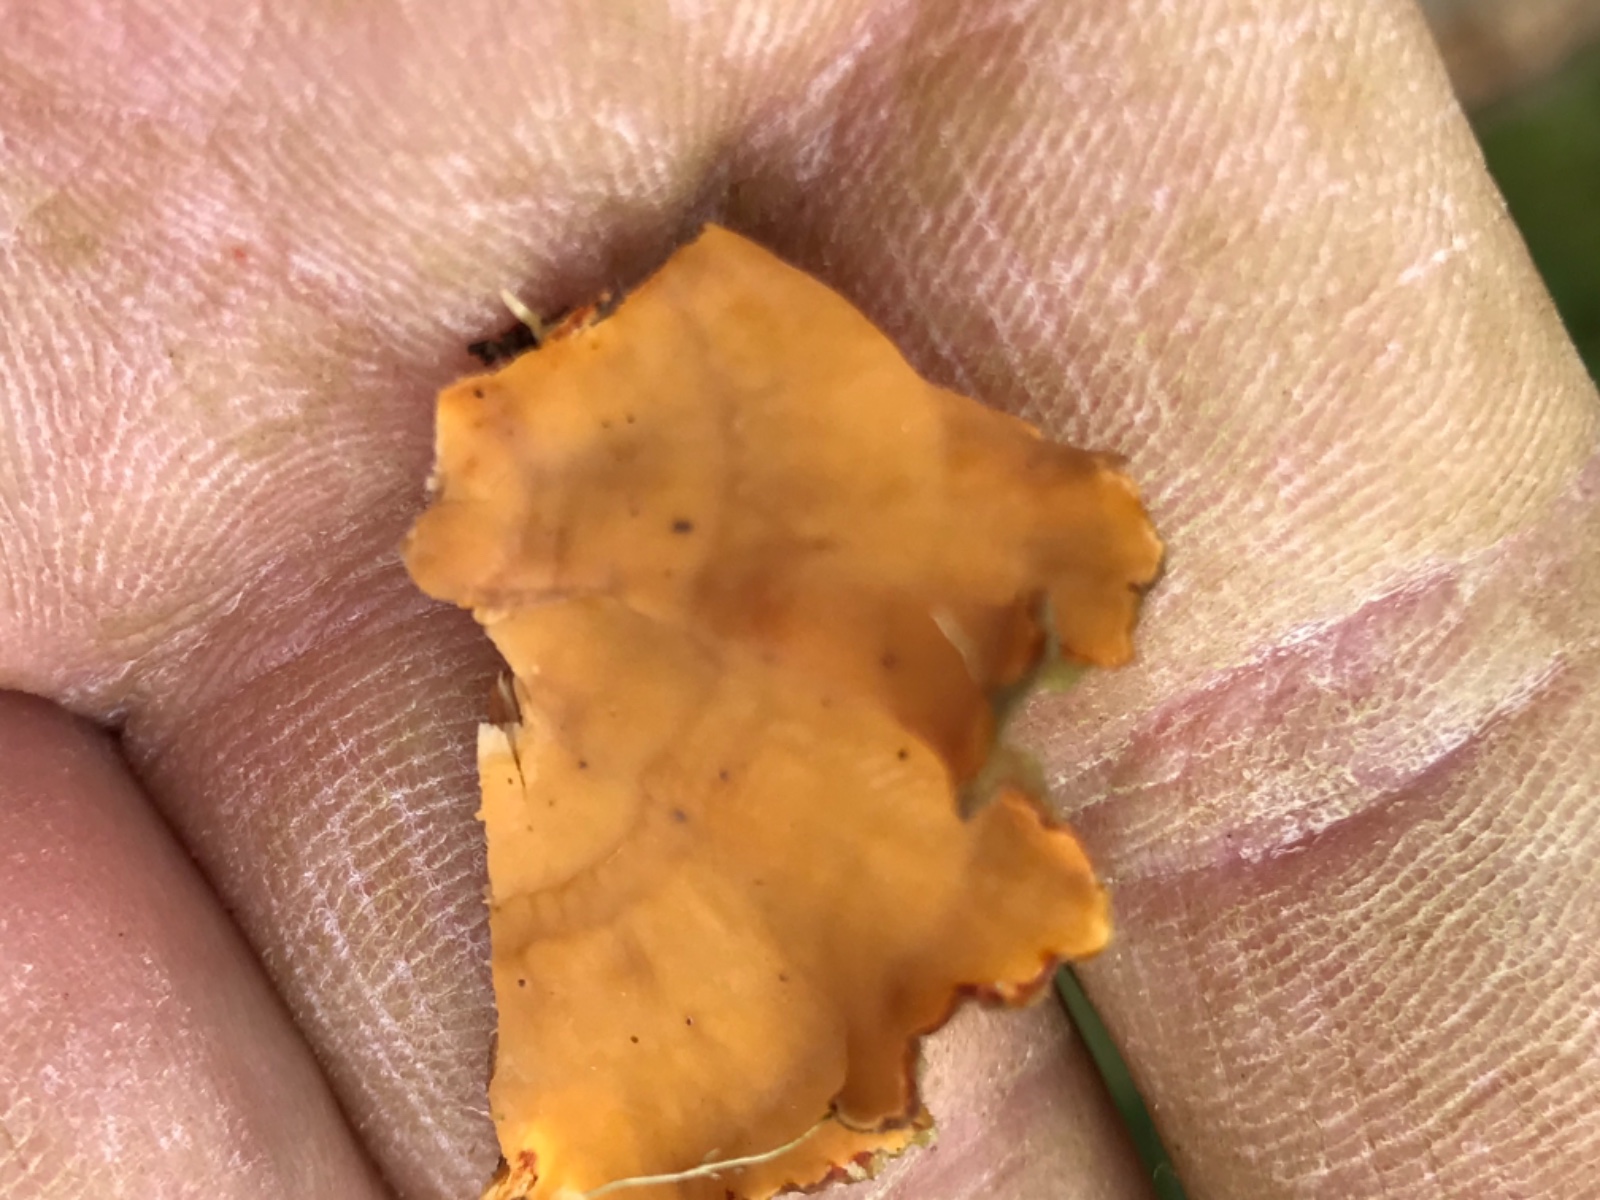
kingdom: Fungi
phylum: Basidiomycota
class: Agaricomycetes
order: Russulales
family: Stereaceae
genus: Stereum
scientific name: Stereum hirsutum
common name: håret lædersvamp
